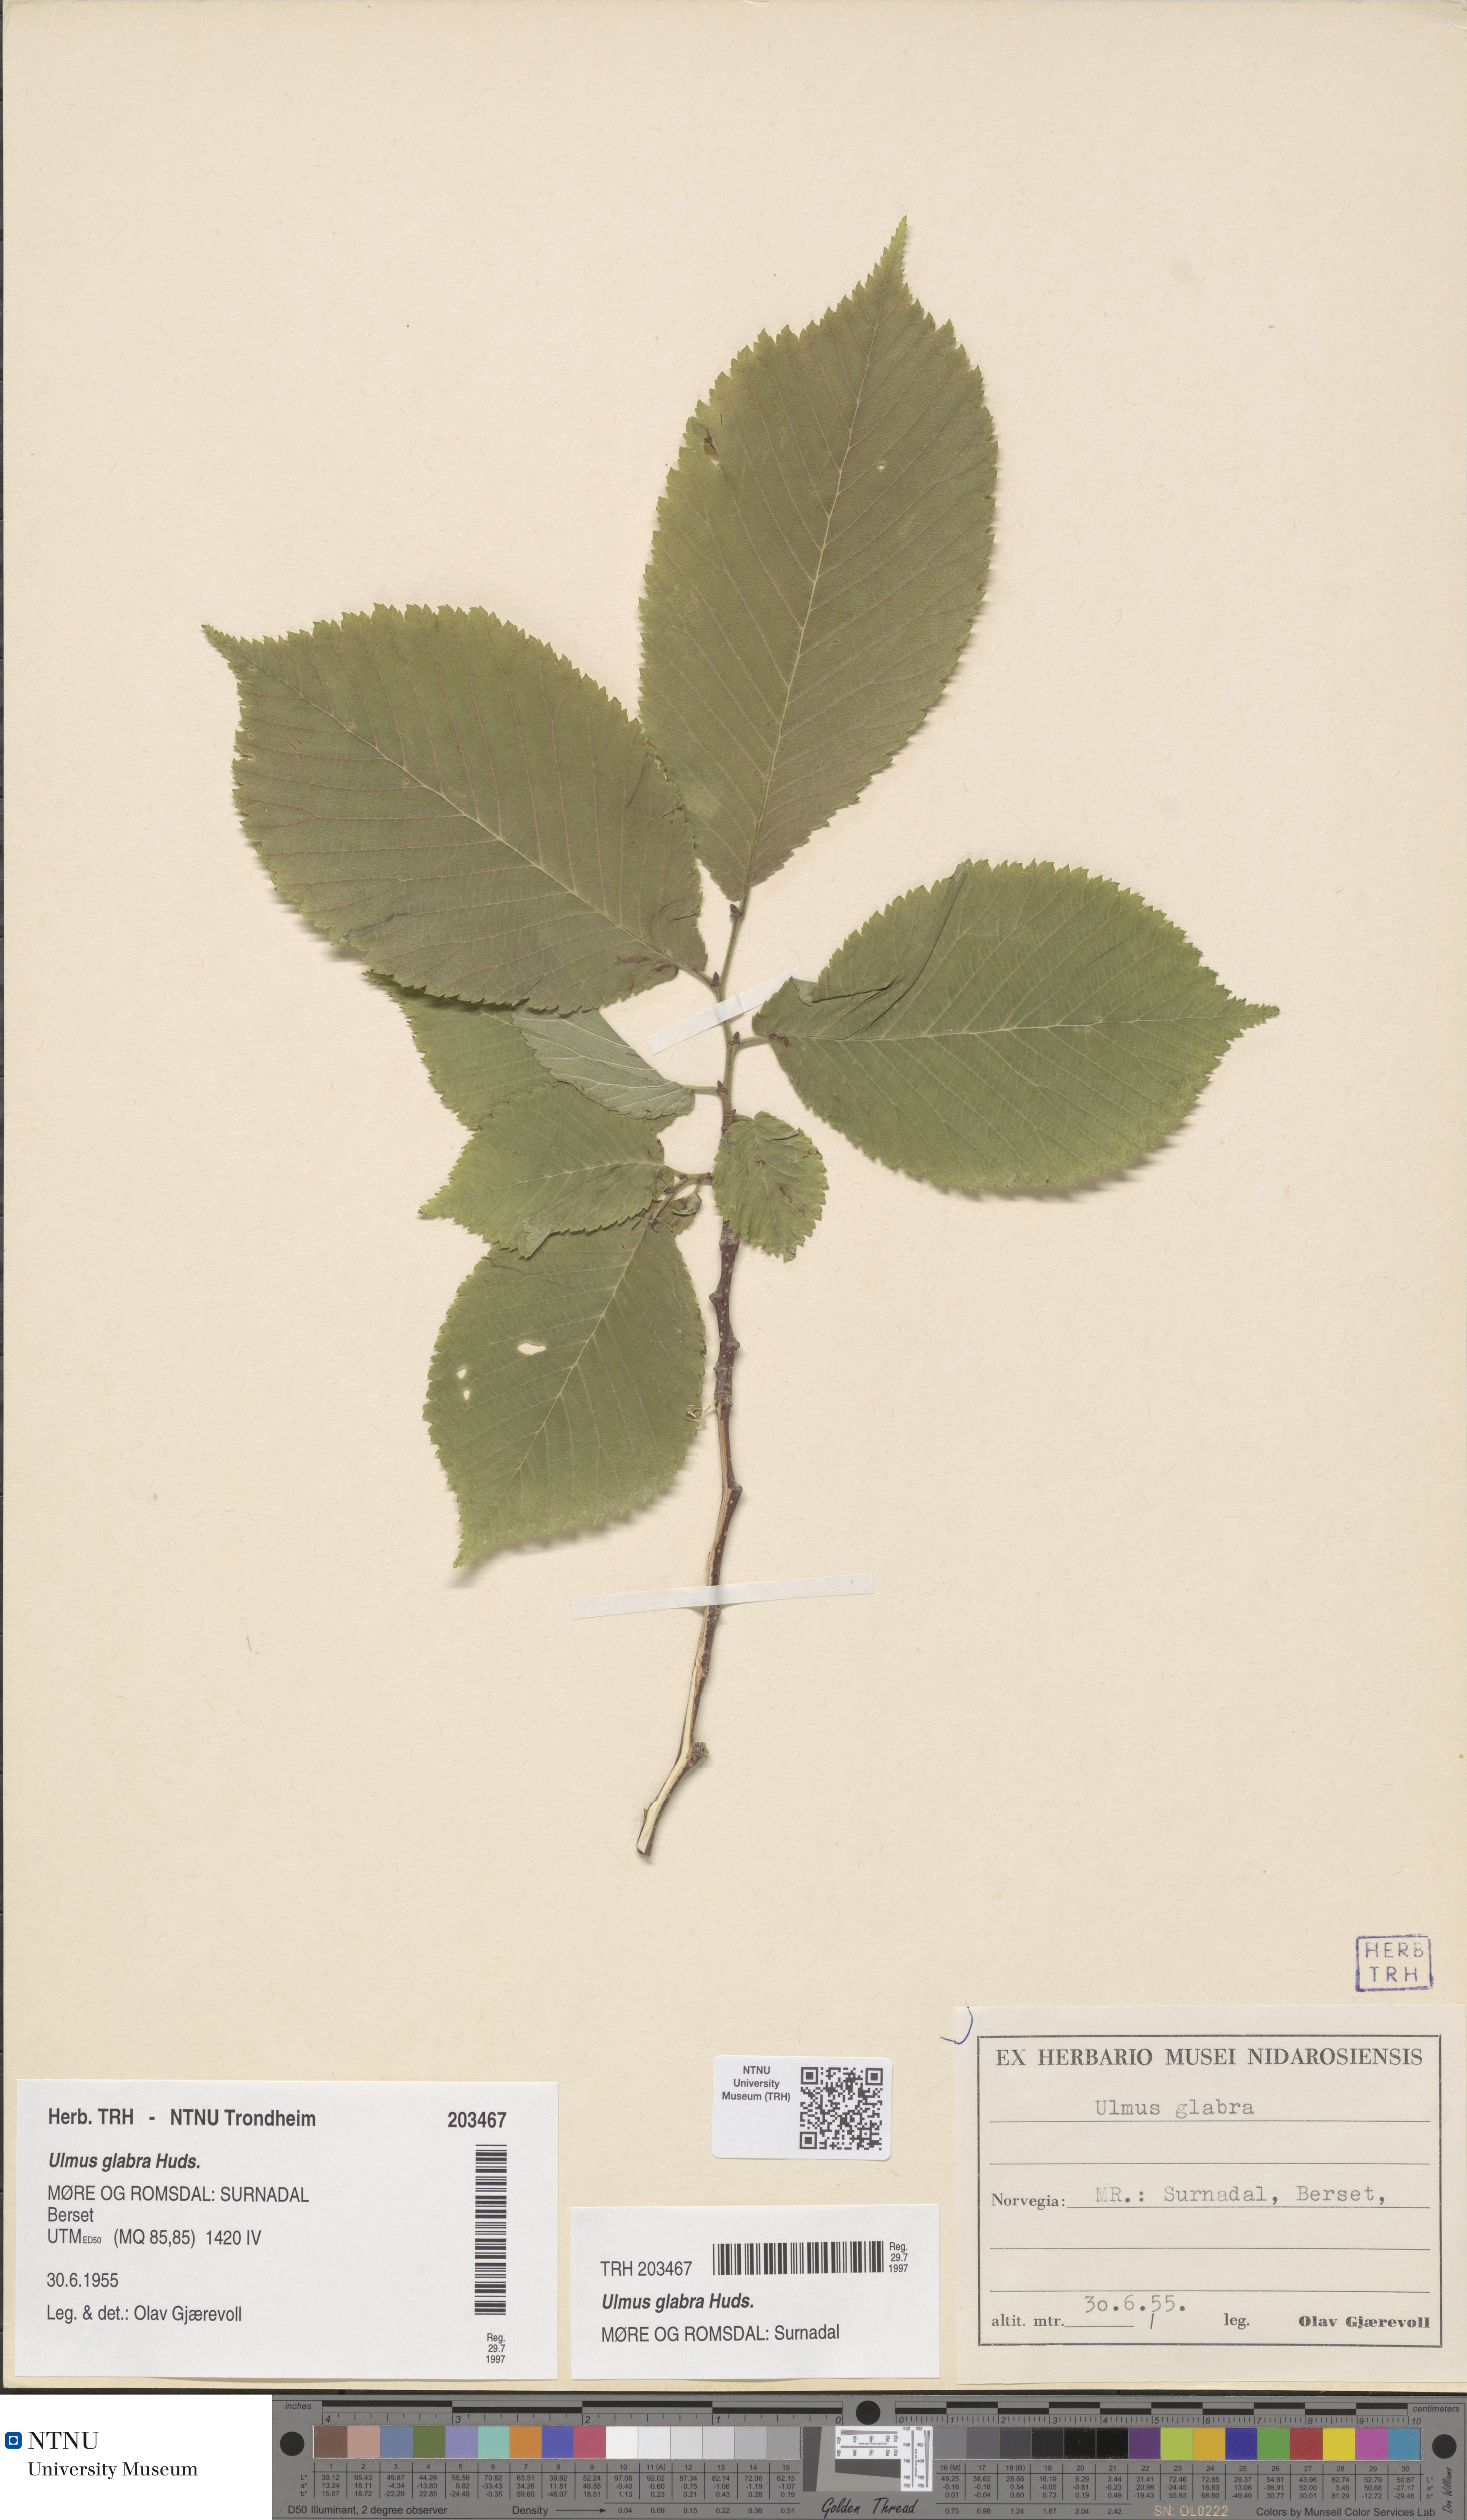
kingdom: Plantae
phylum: Tracheophyta
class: Magnoliopsida
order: Rosales
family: Ulmaceae
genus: Ulmus
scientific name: Ulmus glabra
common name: Wych elm
